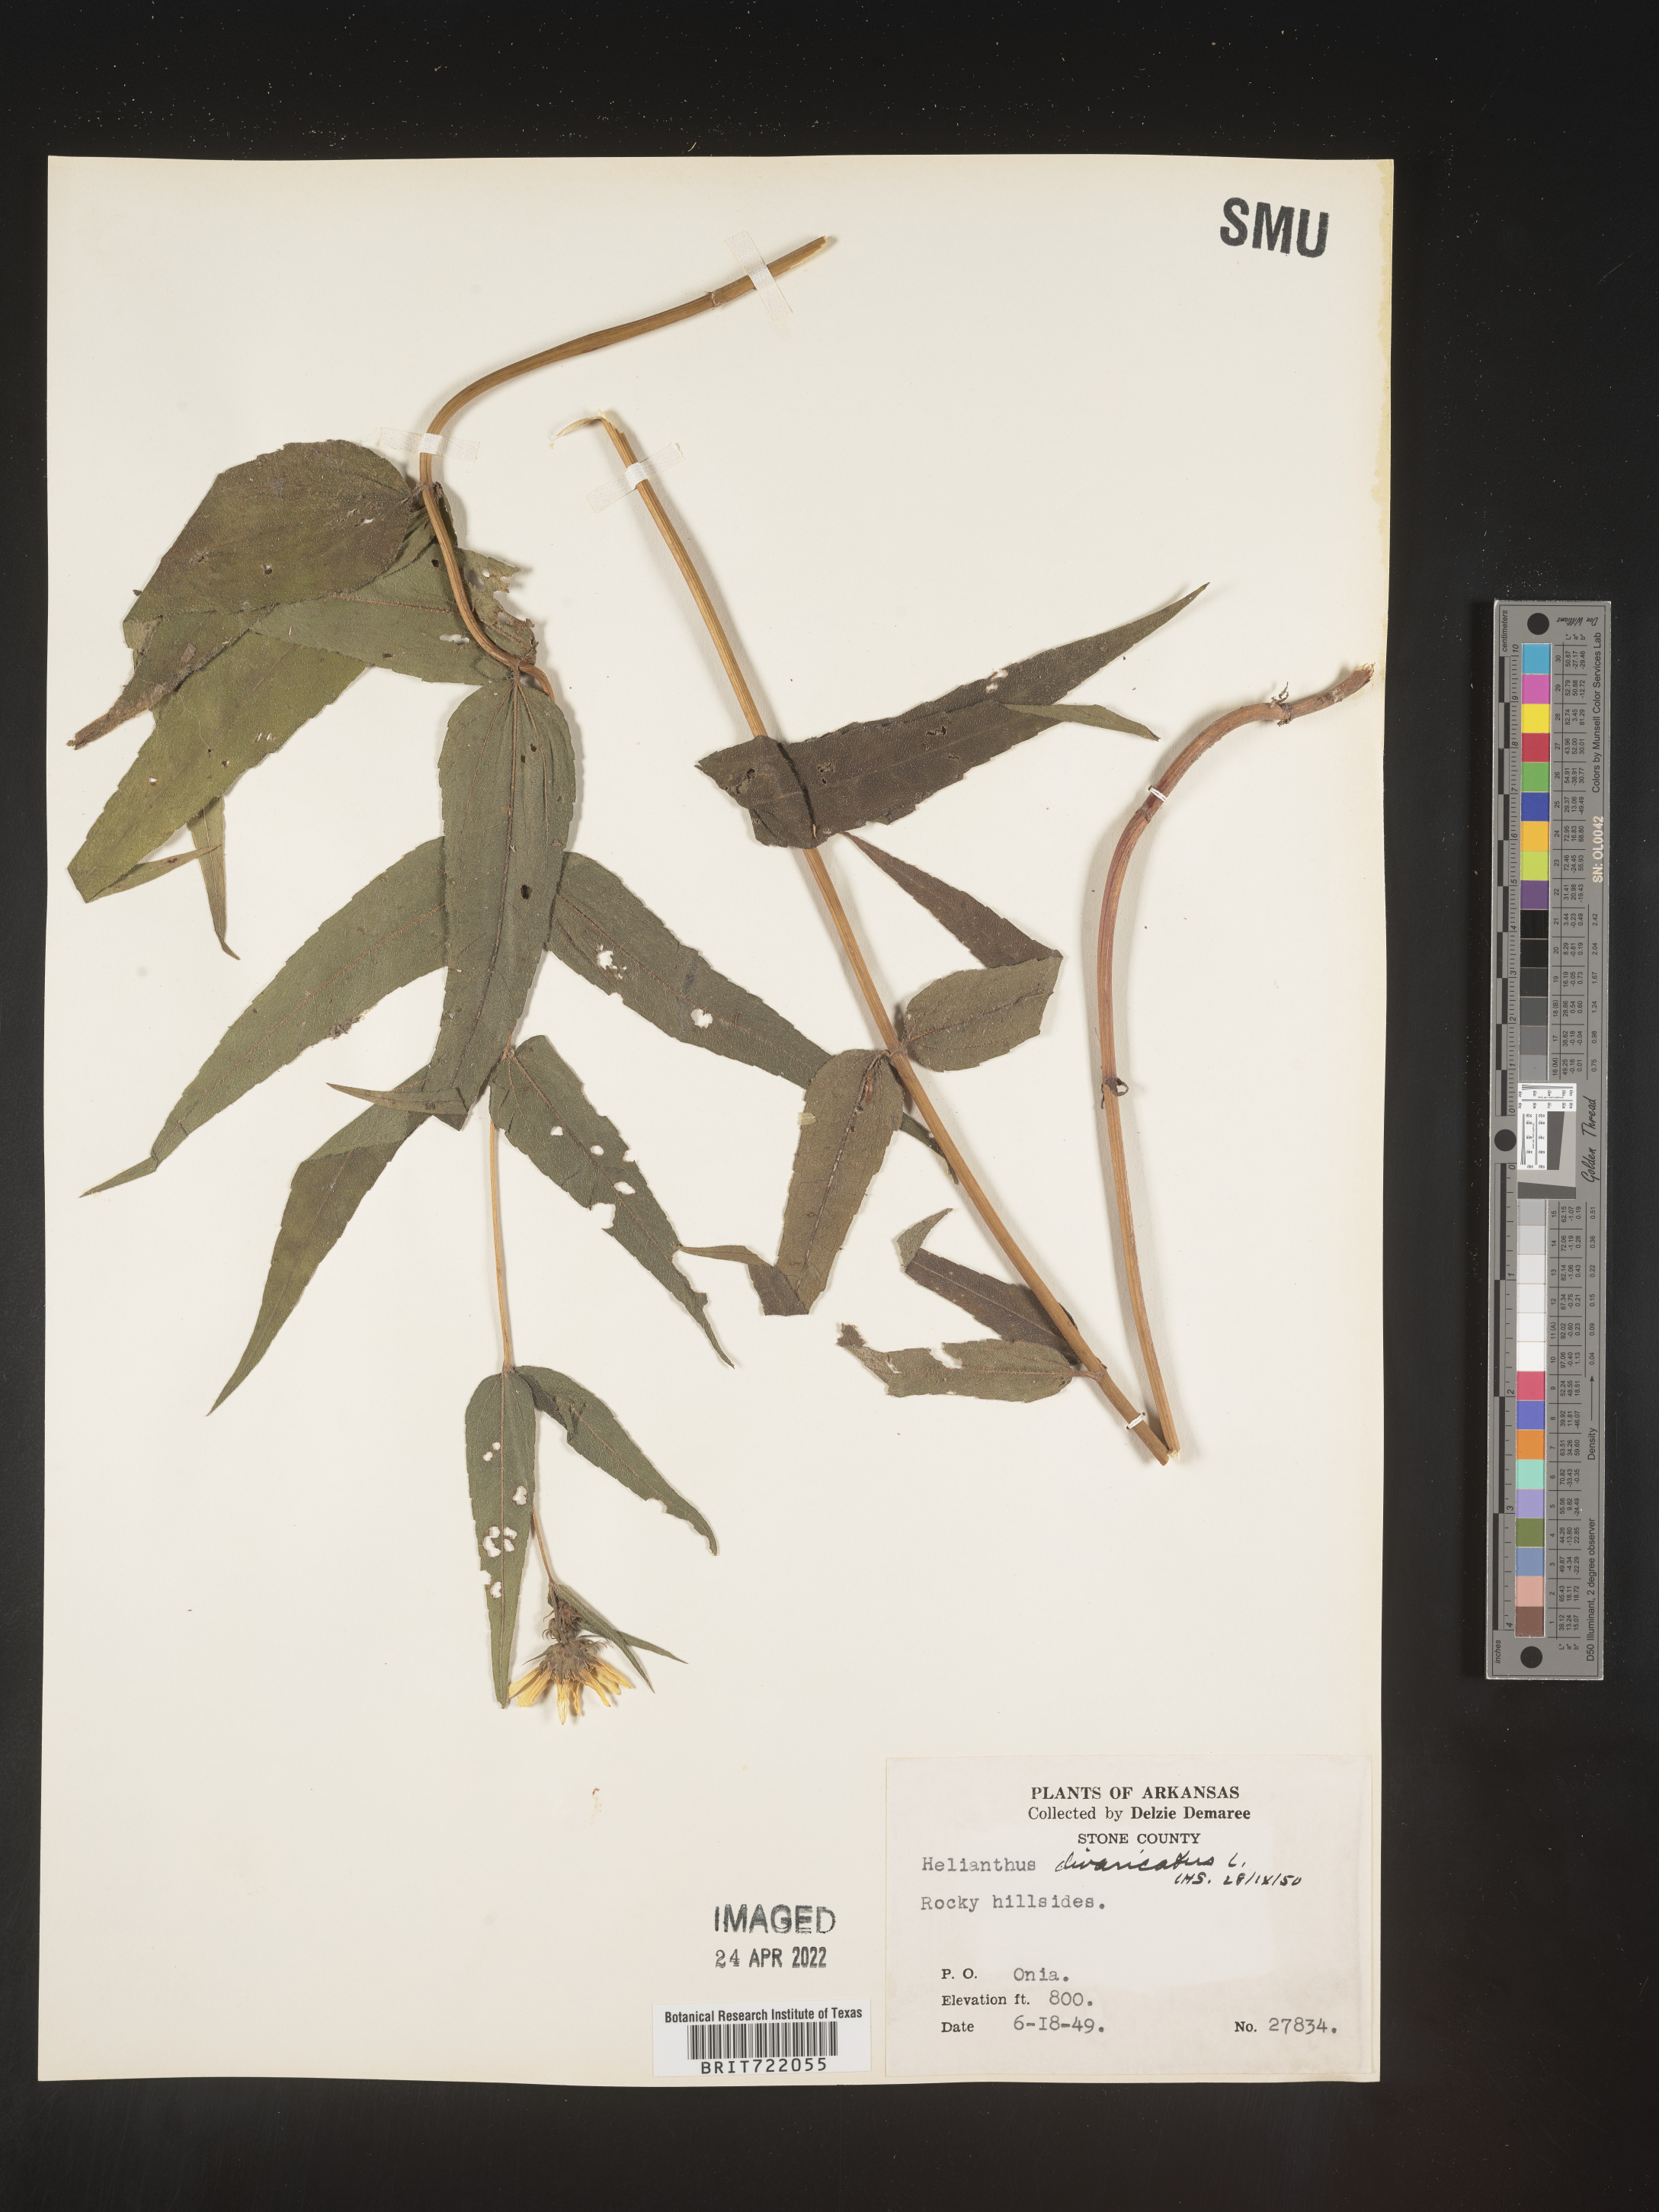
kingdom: Plantae
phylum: Tracheophyta
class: Magnoliopsida
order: Asterales
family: Asteraceae
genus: Helianthus
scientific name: Helianthus divaricatus
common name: Divergent sunflower
